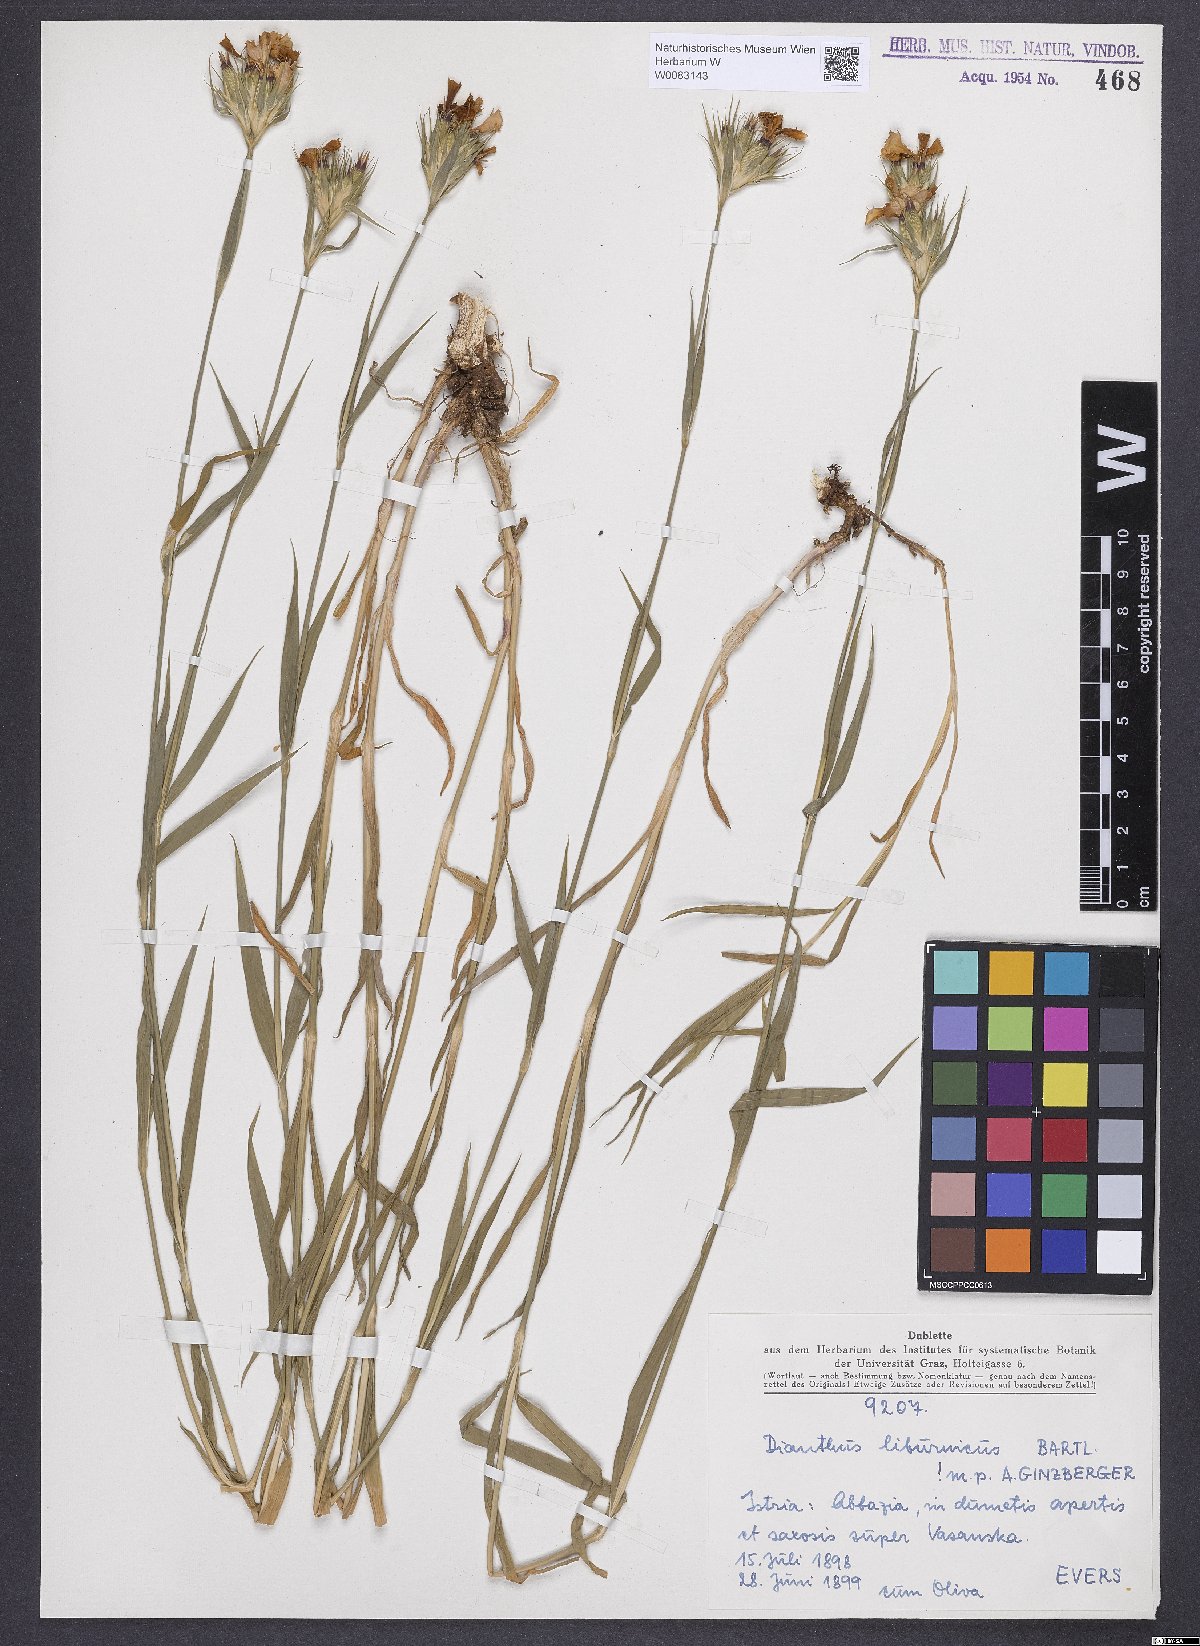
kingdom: Plantae
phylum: Tracheophyta
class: Magnoliopsida
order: Caryophyllales
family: Caryophyllaceae
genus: Dianthus
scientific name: Dianthus balbisii
